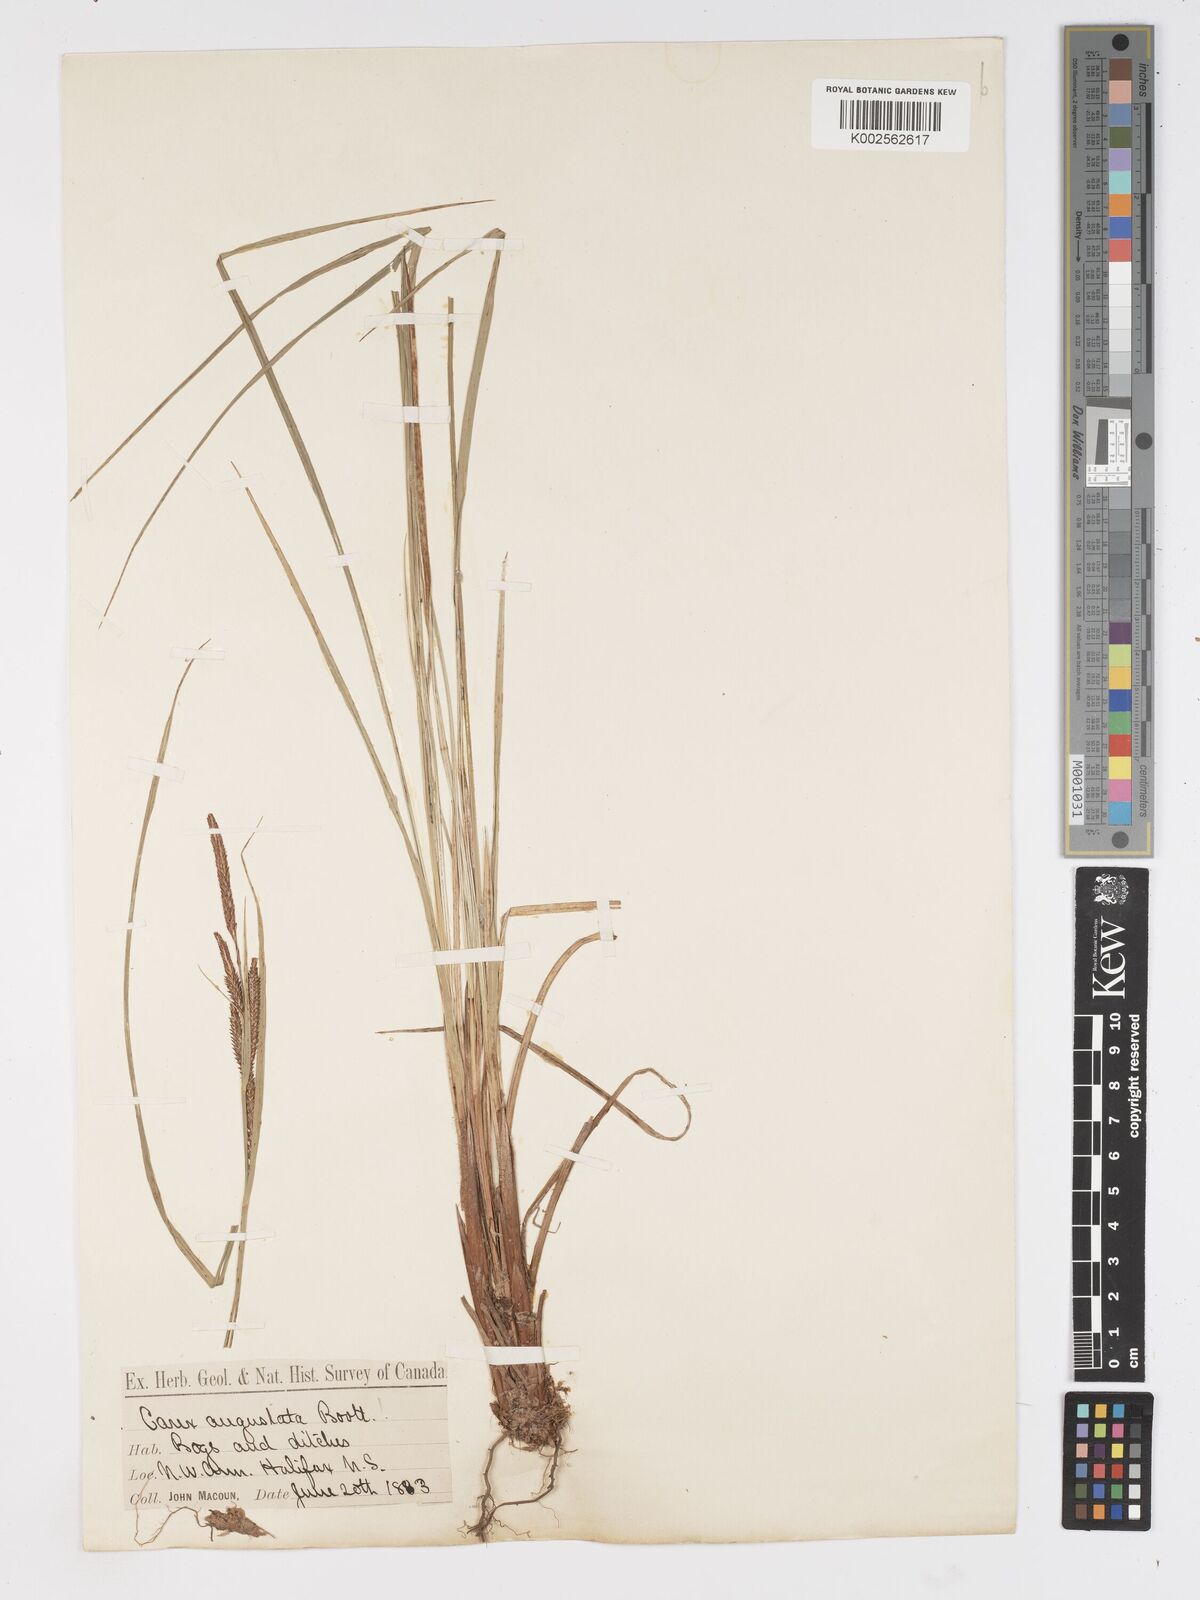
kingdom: Plantae
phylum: Tracheophyta
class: Liliopsida
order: Poales
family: Cyperaceae
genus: Carex
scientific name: Carex stricta
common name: Hummock sedge
